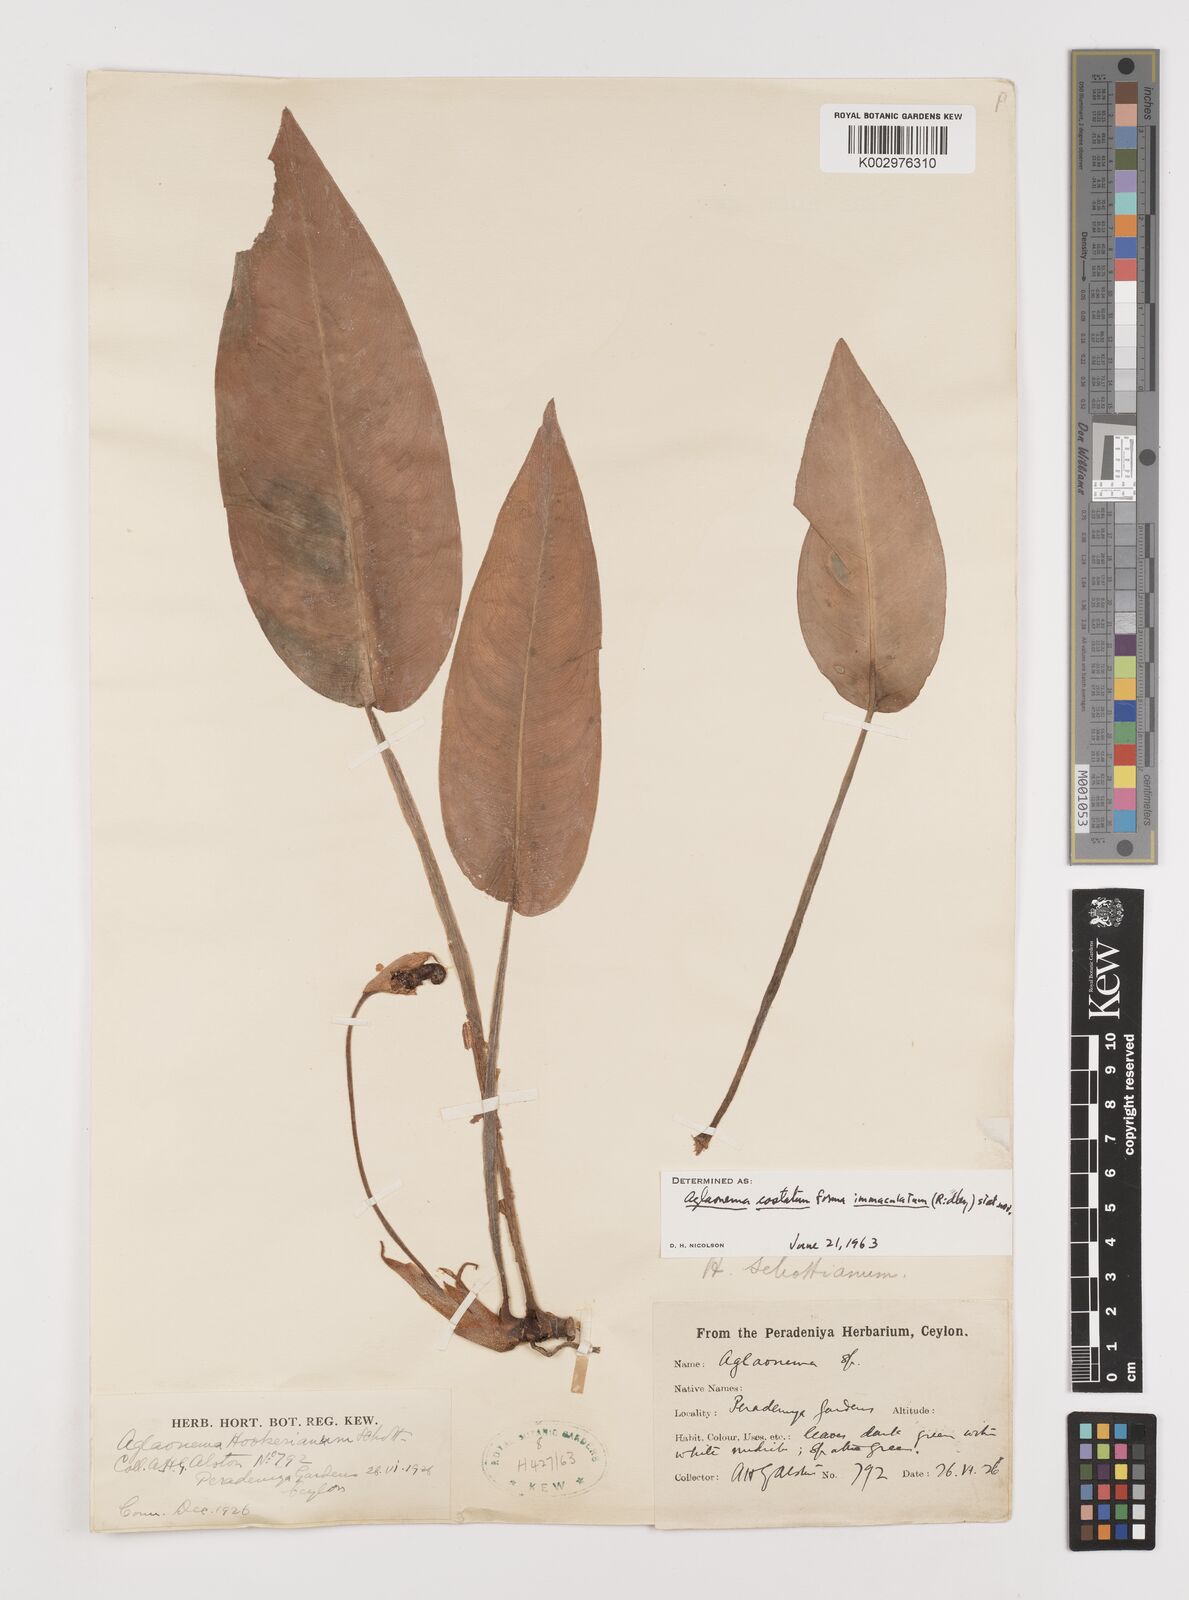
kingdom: Plantae
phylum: Tracheophyta
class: Liliopsida
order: Alismatales
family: Araceae
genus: Aglaonema
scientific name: Aglaonema costatum
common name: Chinese evergreen
